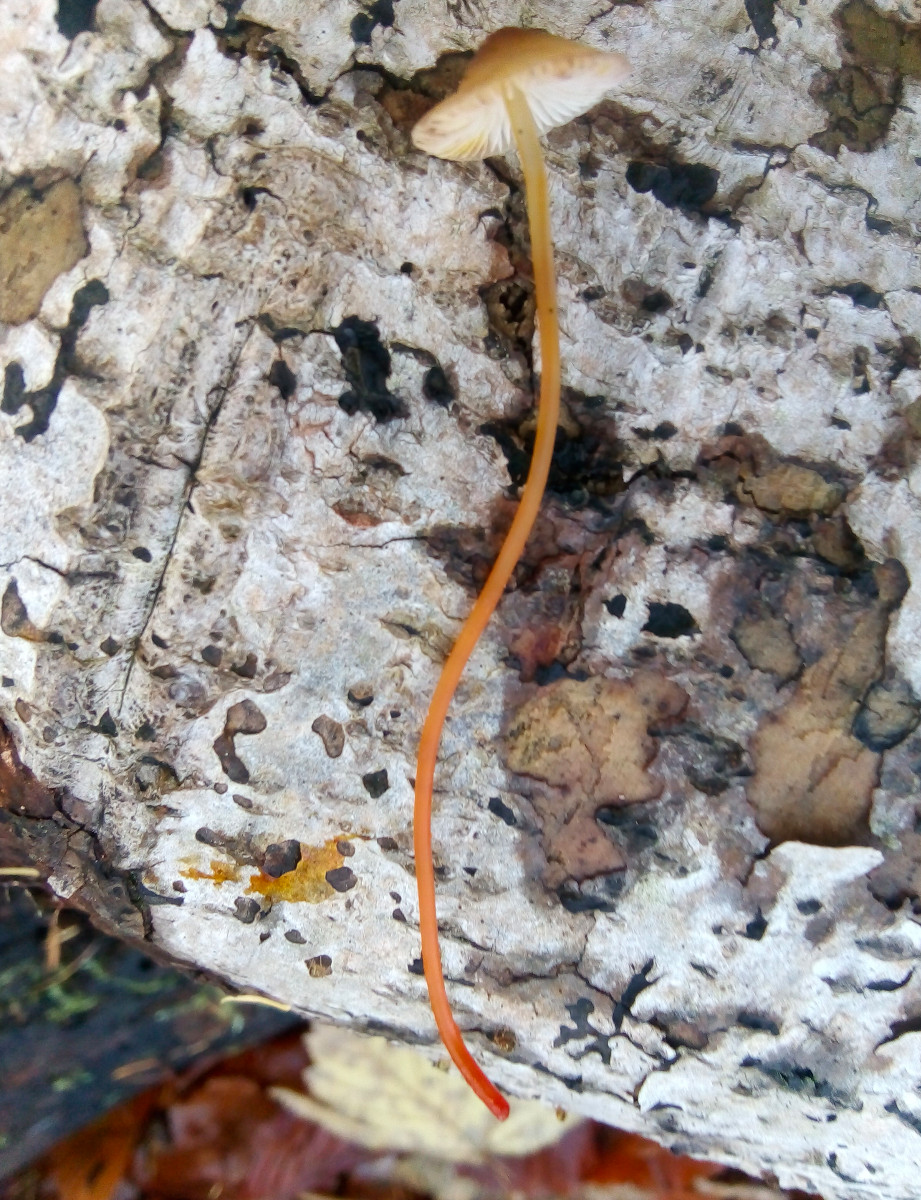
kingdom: Fungi
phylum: Basidiomycota
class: Agaricomycetes
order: Agaricales
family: Mycenaceae
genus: Mycena
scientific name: Mycena crocata
